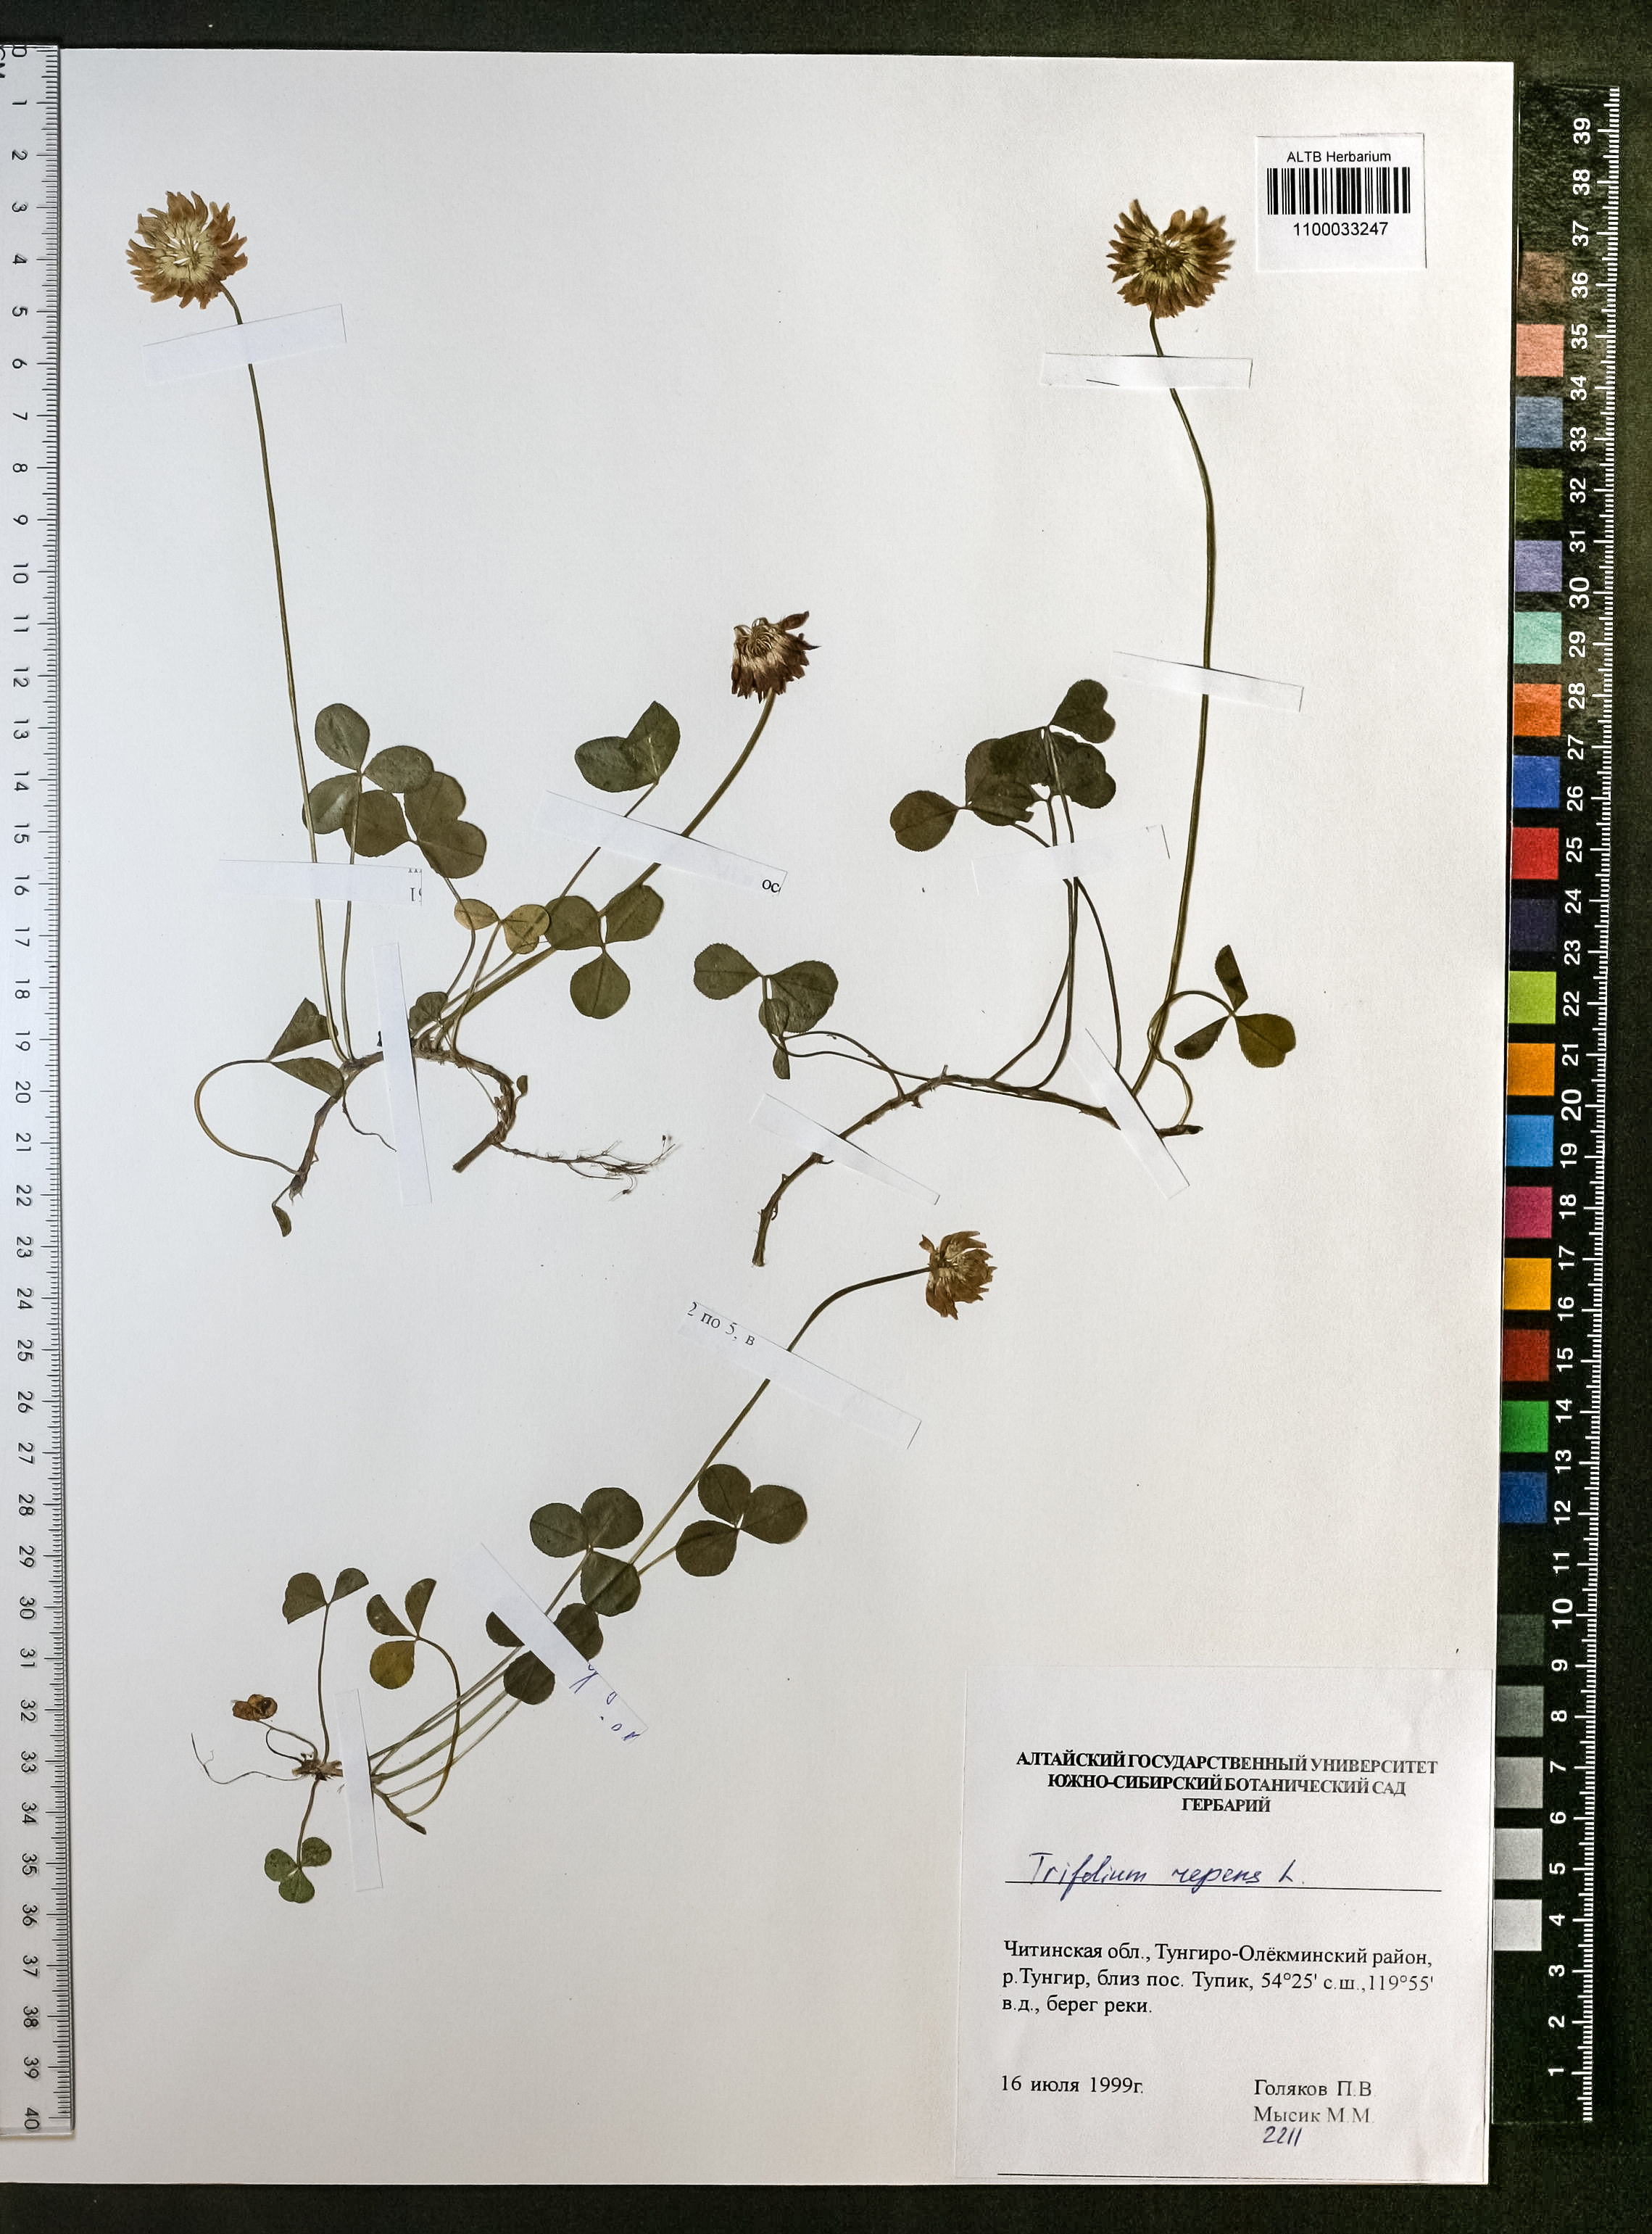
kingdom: Plantae
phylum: Tracheophyta
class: Magnoliopsida
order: Fabales
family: Fabaceae
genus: Trifolium
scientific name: Trifolium repens
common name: White clover
